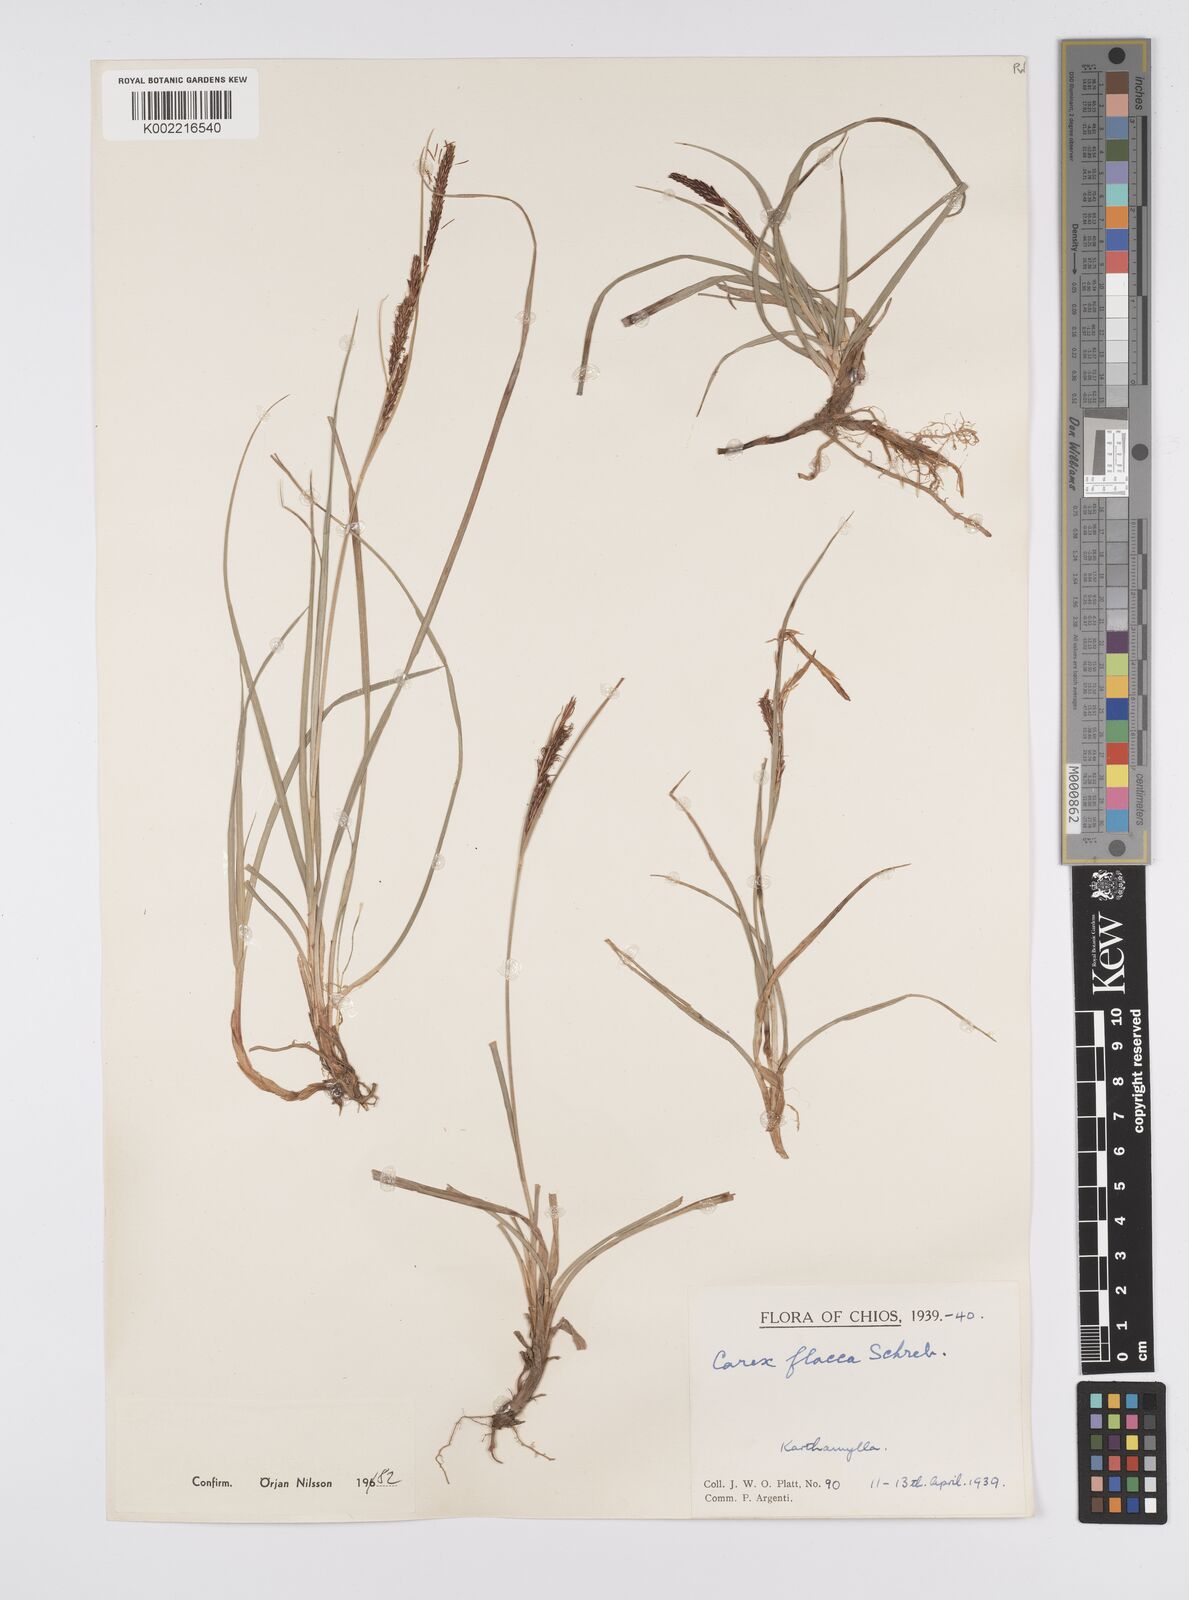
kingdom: Plantae
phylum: Tracheophyta
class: Liliopsida
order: Poales
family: Cyperaceae
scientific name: Cyperaceae
